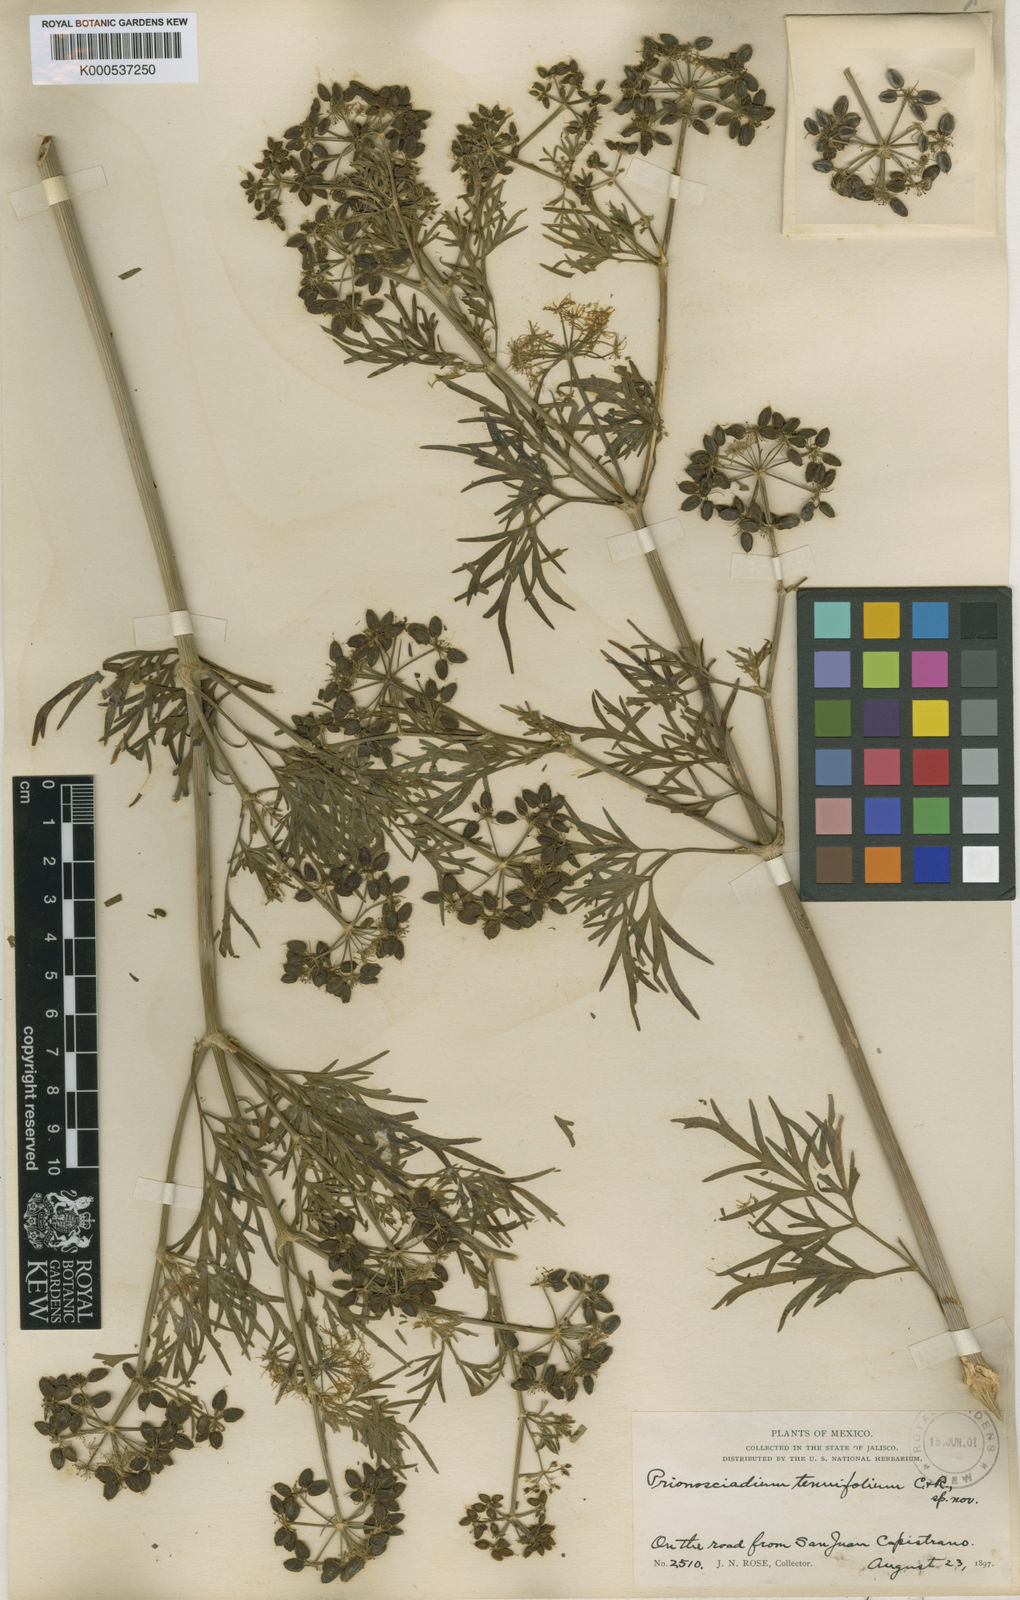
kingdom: Plantae
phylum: Tracheophyta
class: Magnoliopsida
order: Apiales
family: Apiaceae
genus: Prionosciadium
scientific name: Prionosciadium filifolium
